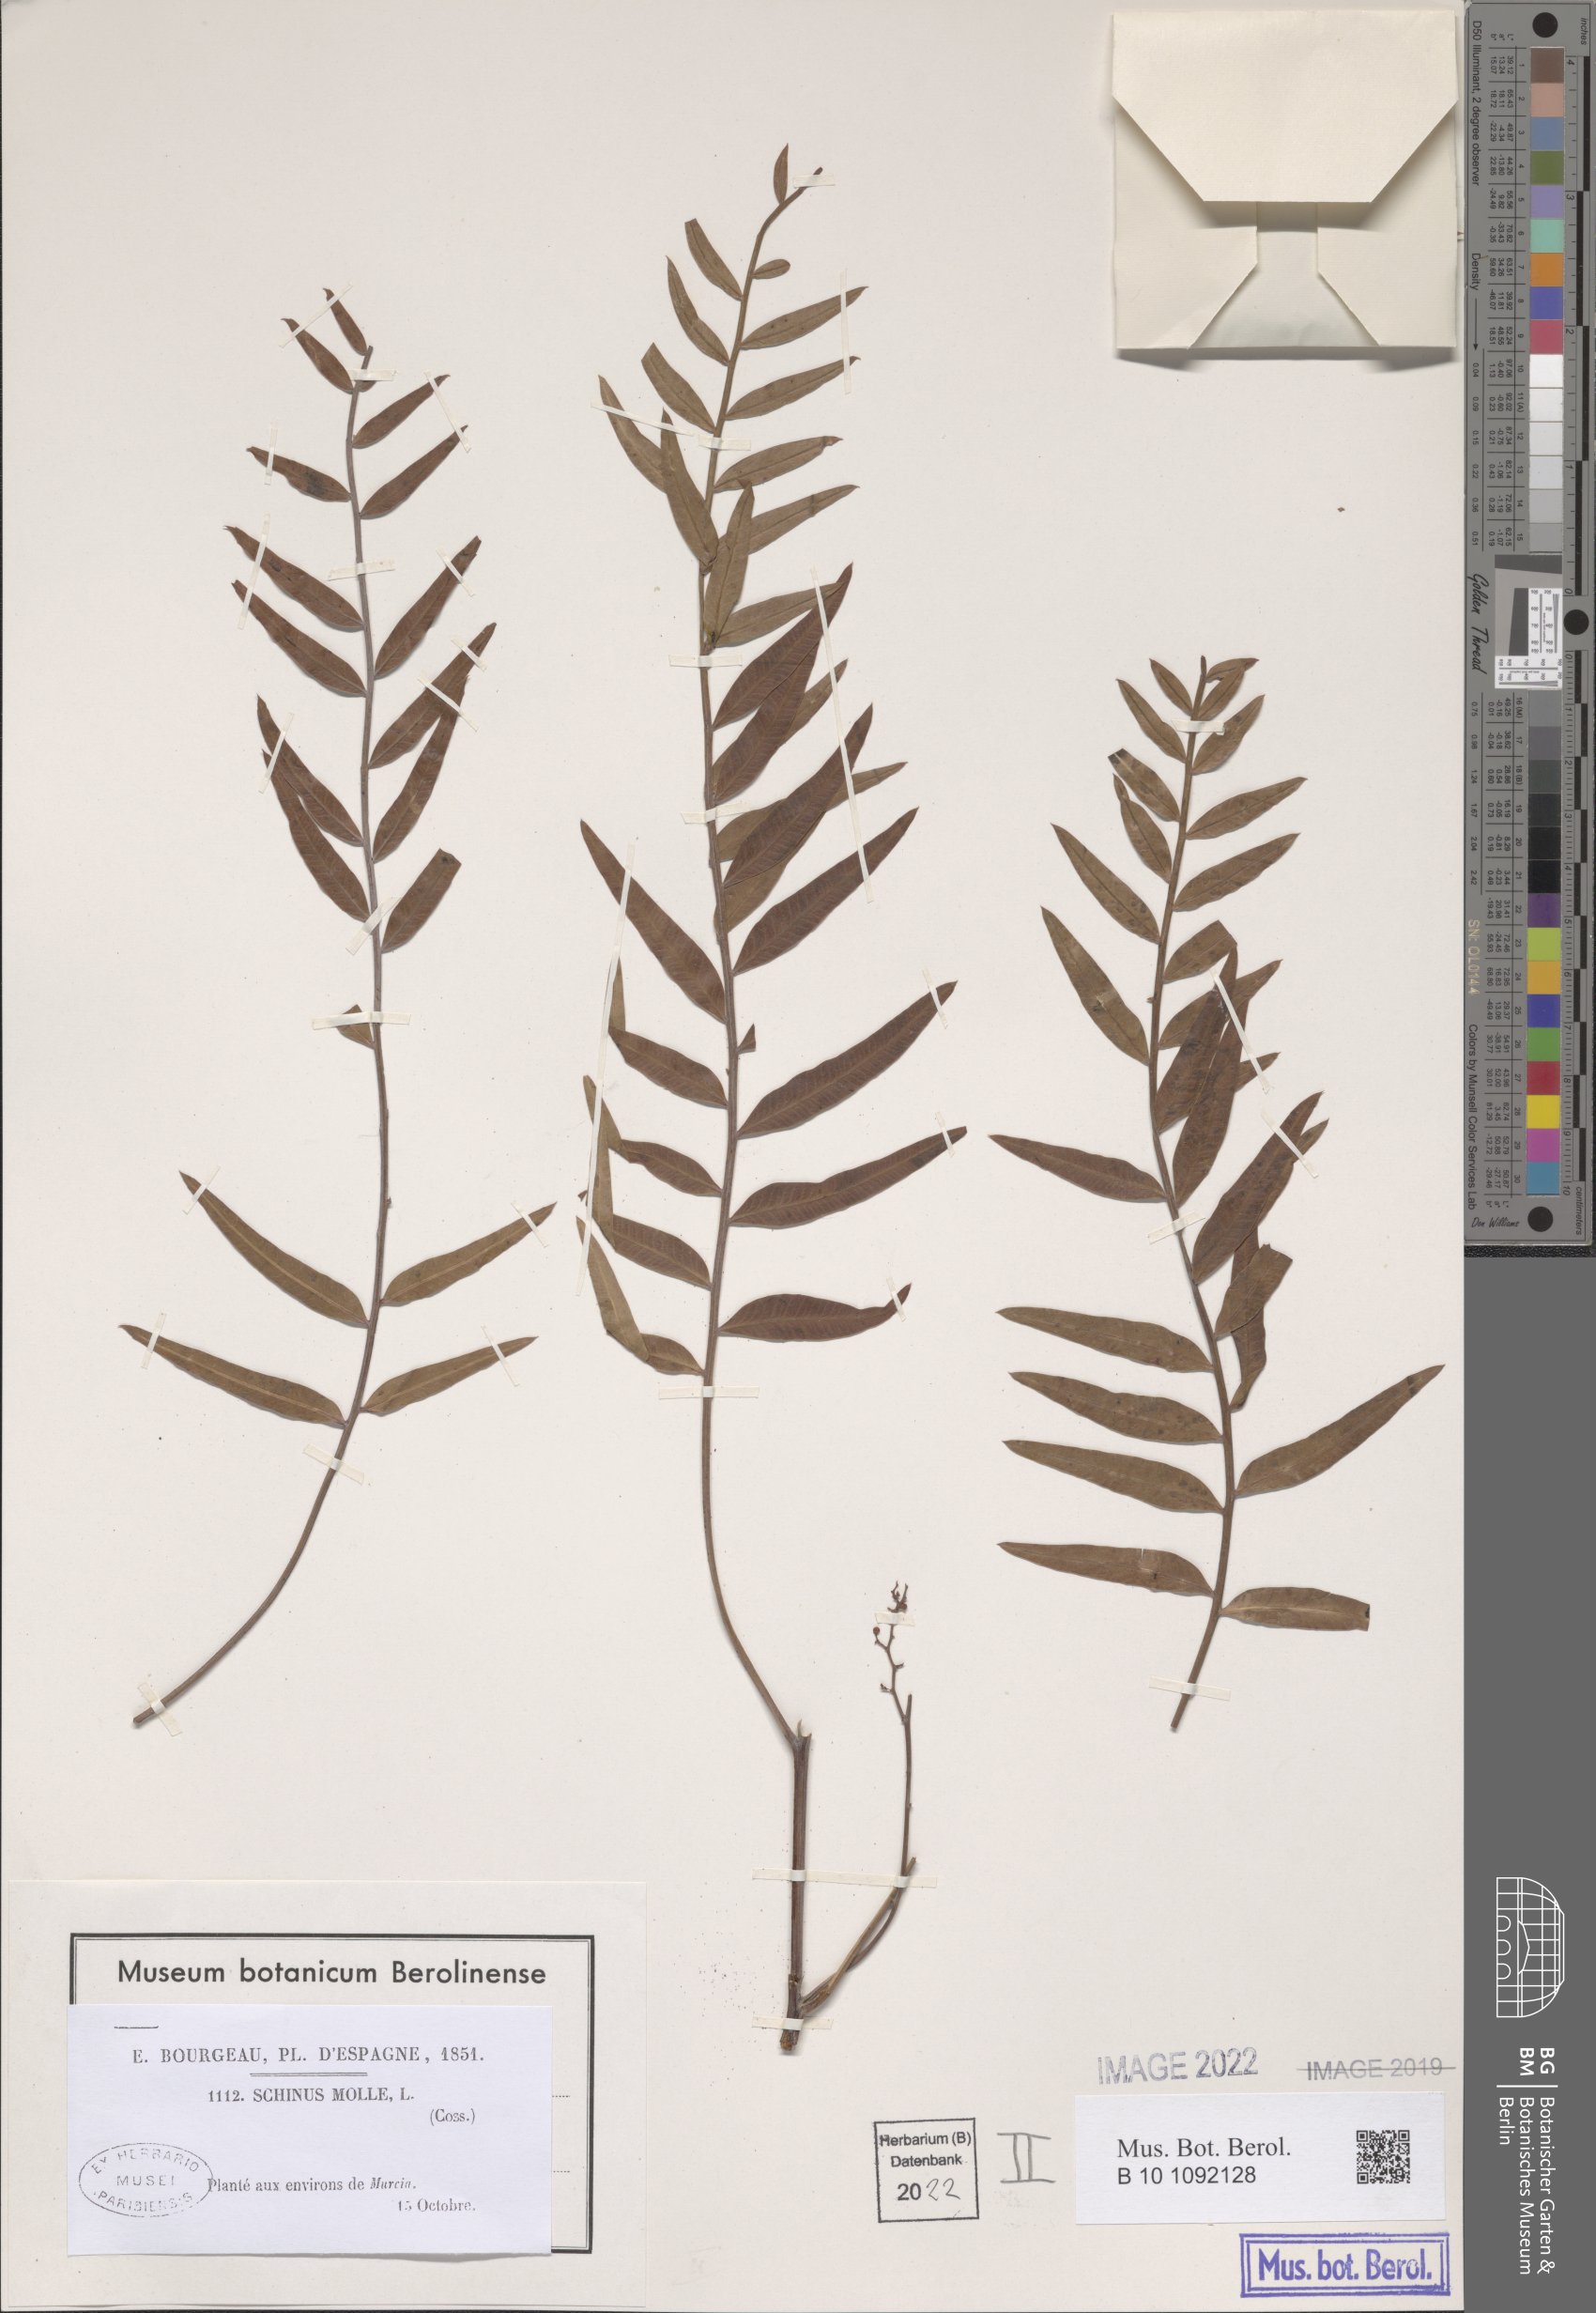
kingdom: Plantae
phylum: Tracheophyta
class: Magnoliopsida
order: Sapindales
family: Anacardiaceae
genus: Schinus
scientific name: Schinus molle
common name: Peruvian peppertree
